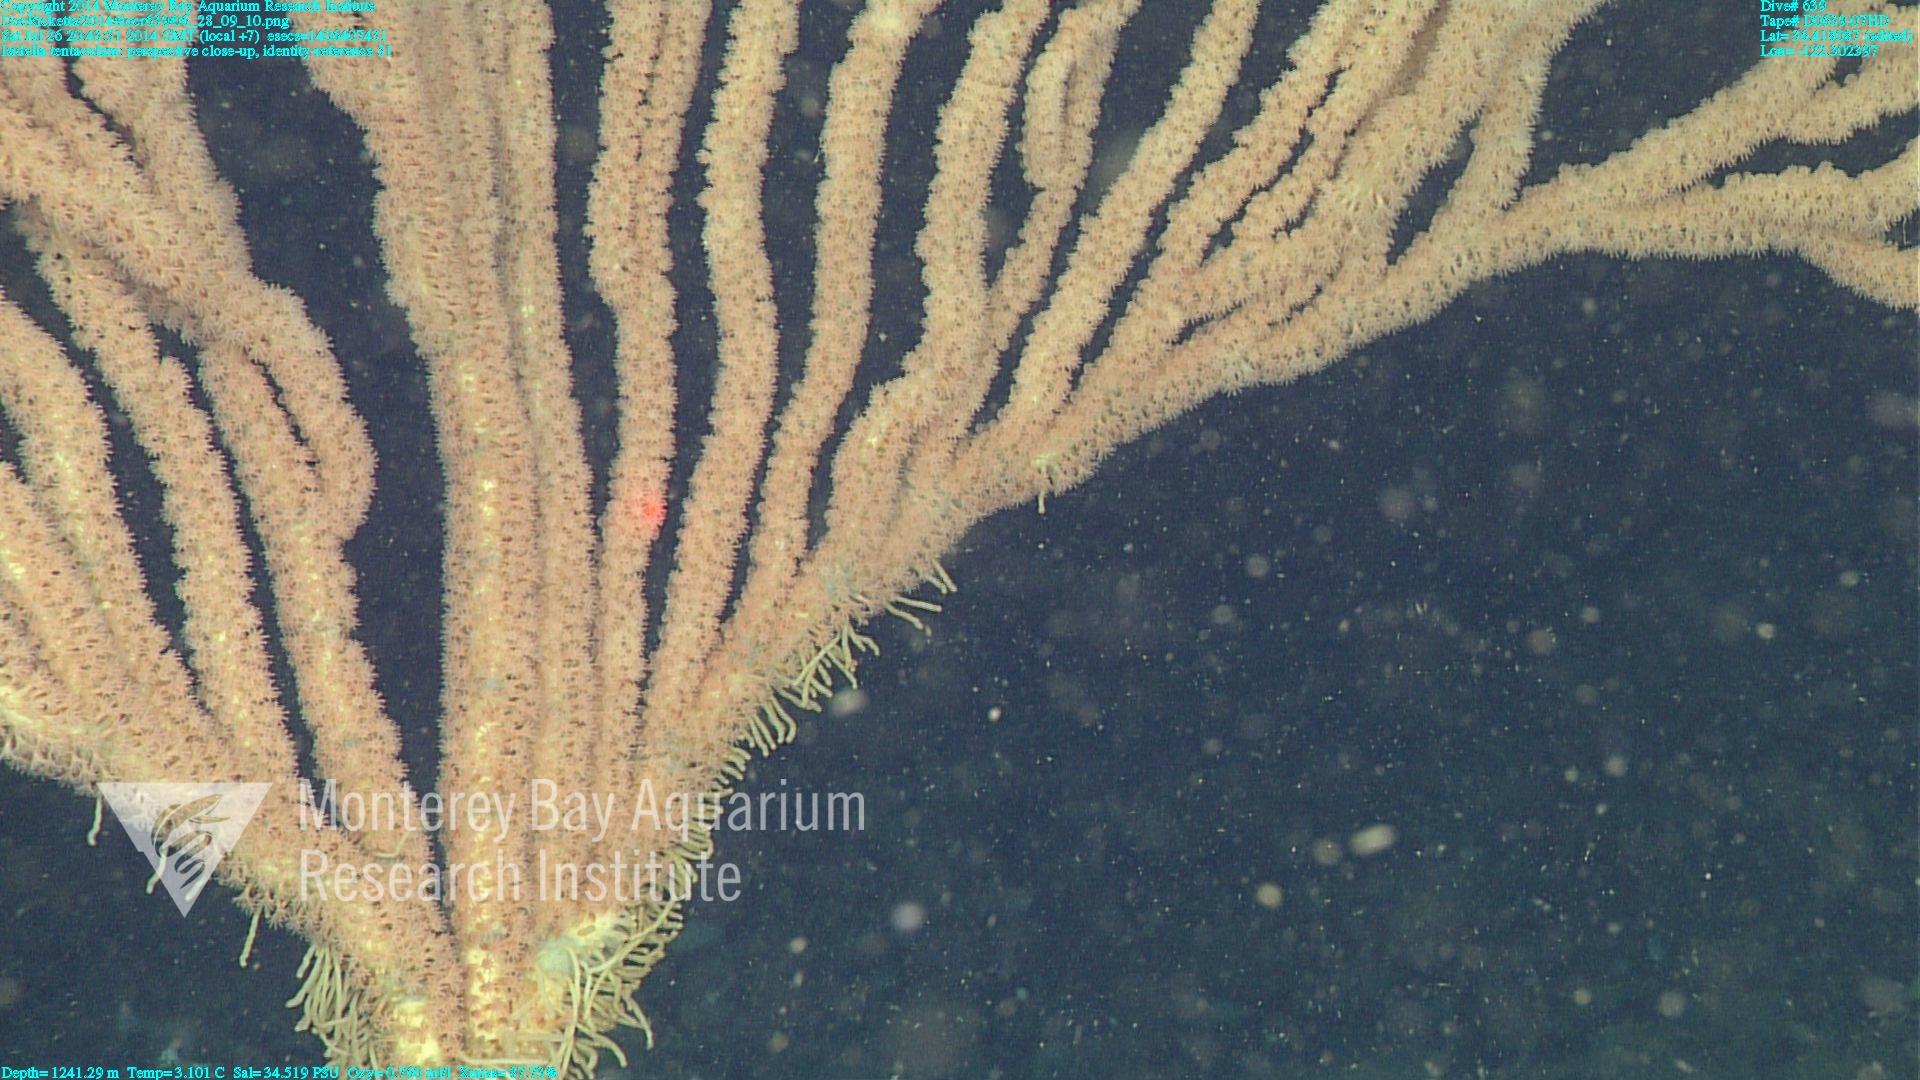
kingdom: Animalia
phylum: Cnidaria
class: Anthozoa
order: Scleralcyonacea
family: Keratoisididae
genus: Isidella
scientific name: Isidella tentaculum
